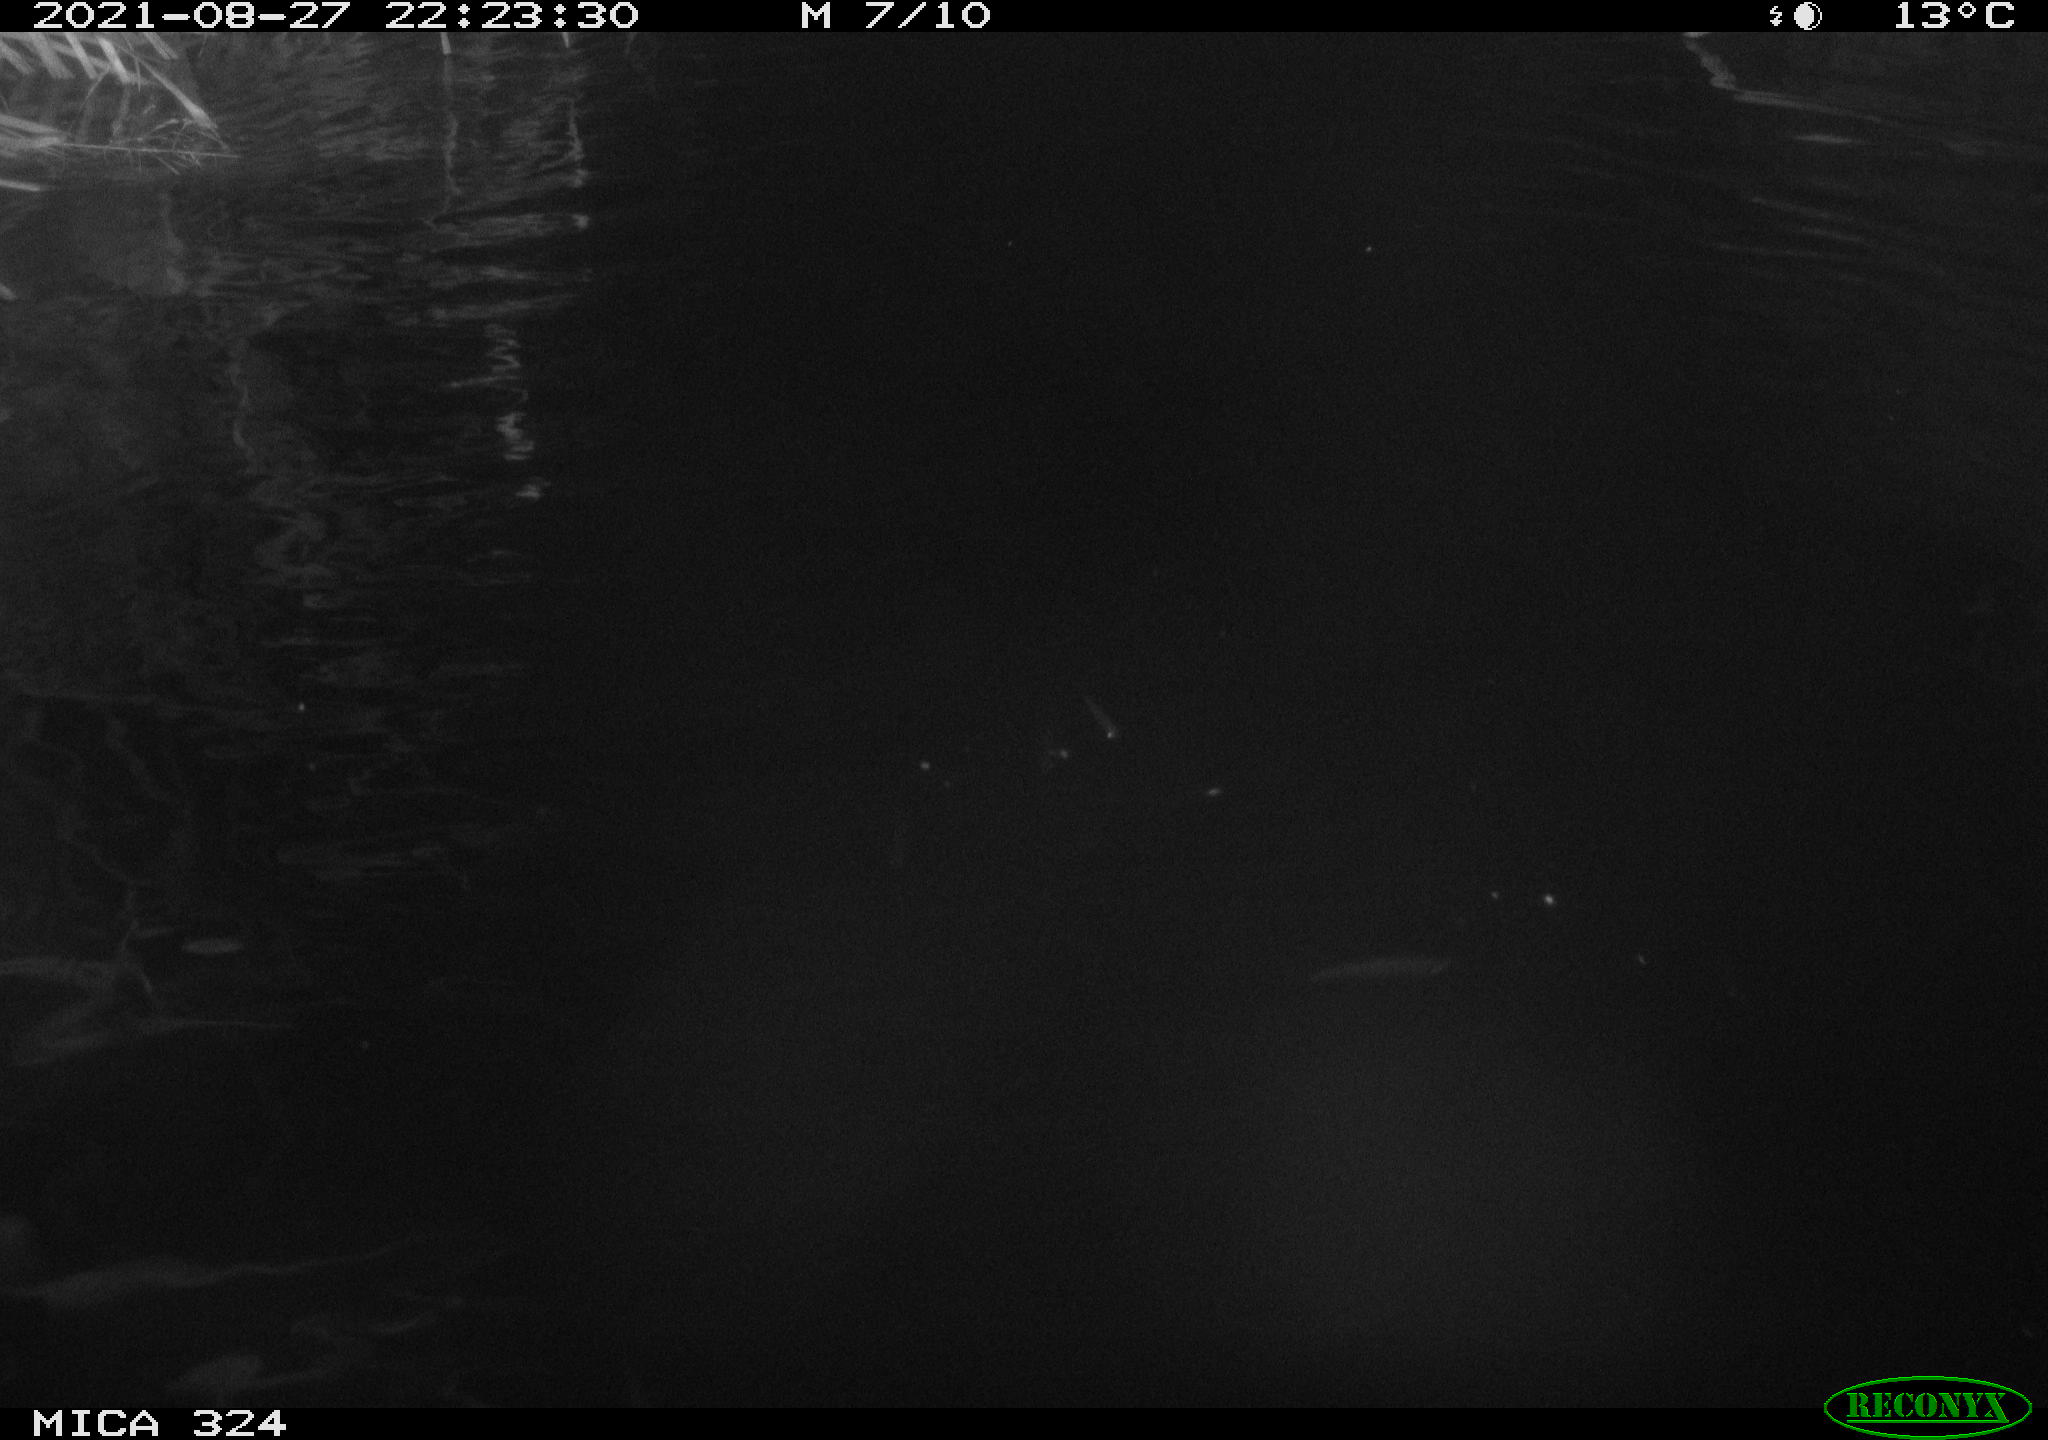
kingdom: Animalia
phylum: Chordata
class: Mammalia
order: Rodentia
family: Cricetidae
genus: Ondatra
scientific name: Ondatra zibethicus
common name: Muskrat
